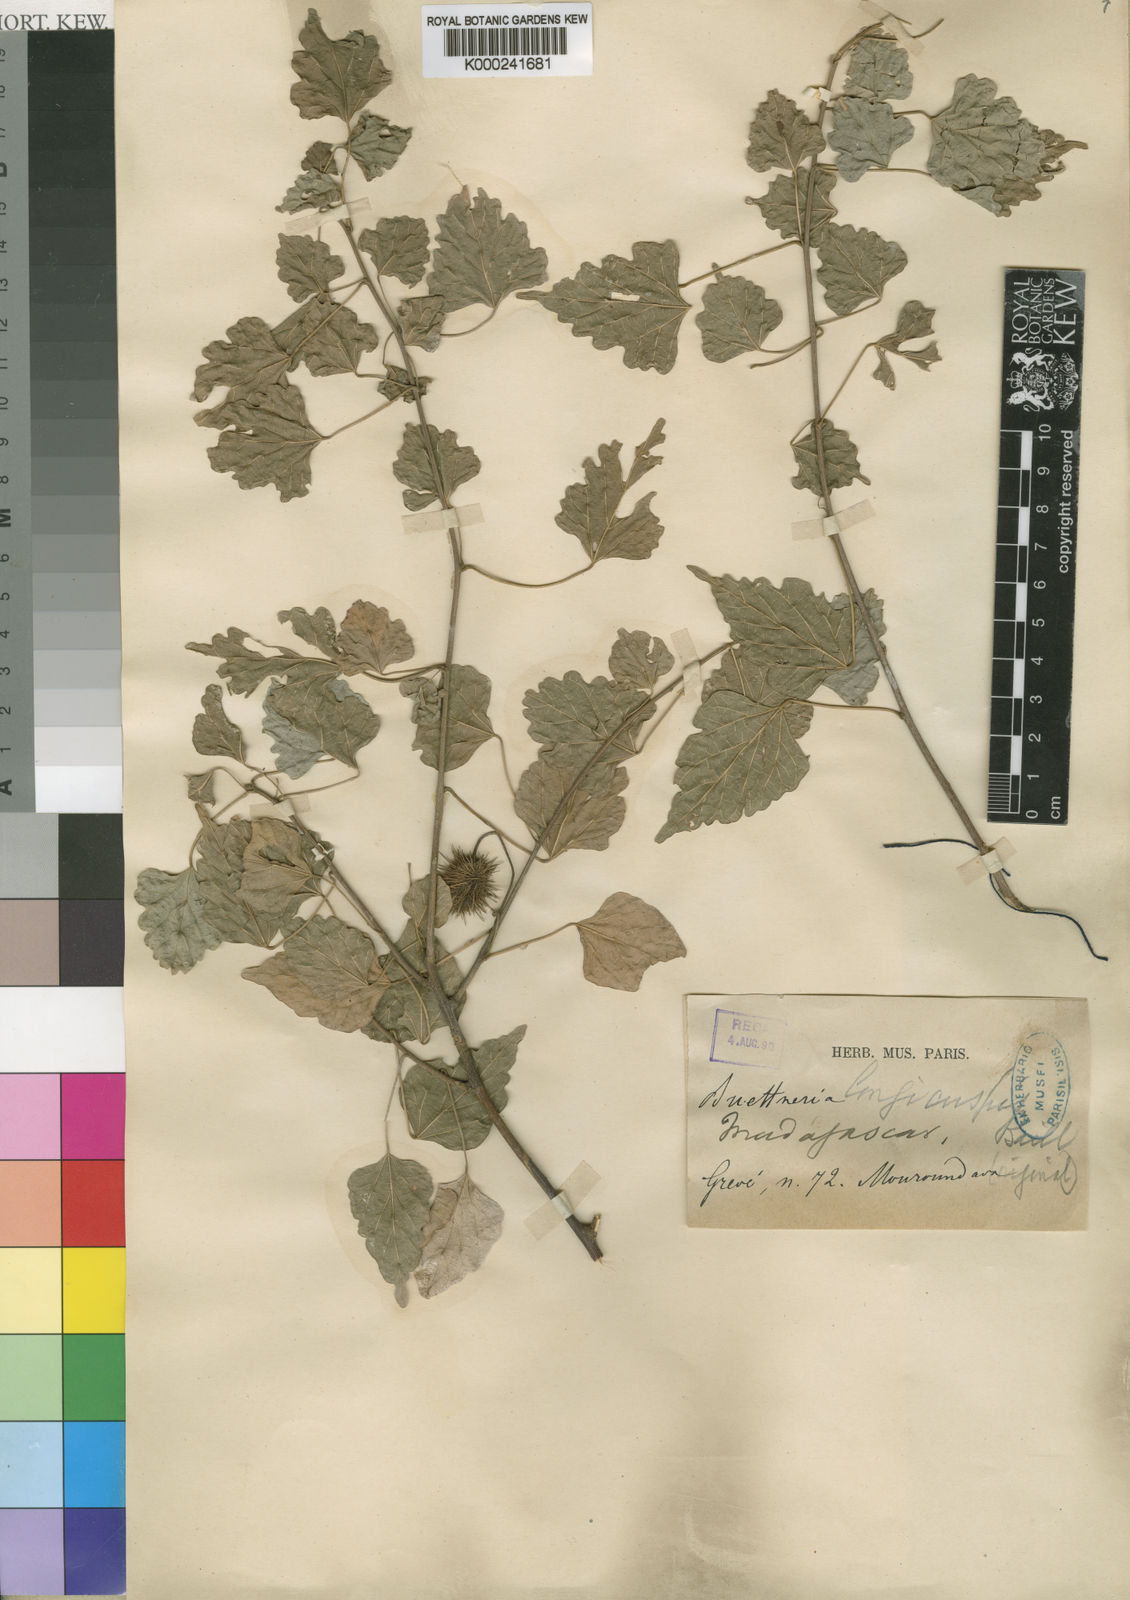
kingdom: Plantae
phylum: Tracheophyta
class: Magnoliopsida
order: Malvales
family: Malvaceae
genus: Byttneria
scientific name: Byttneria
